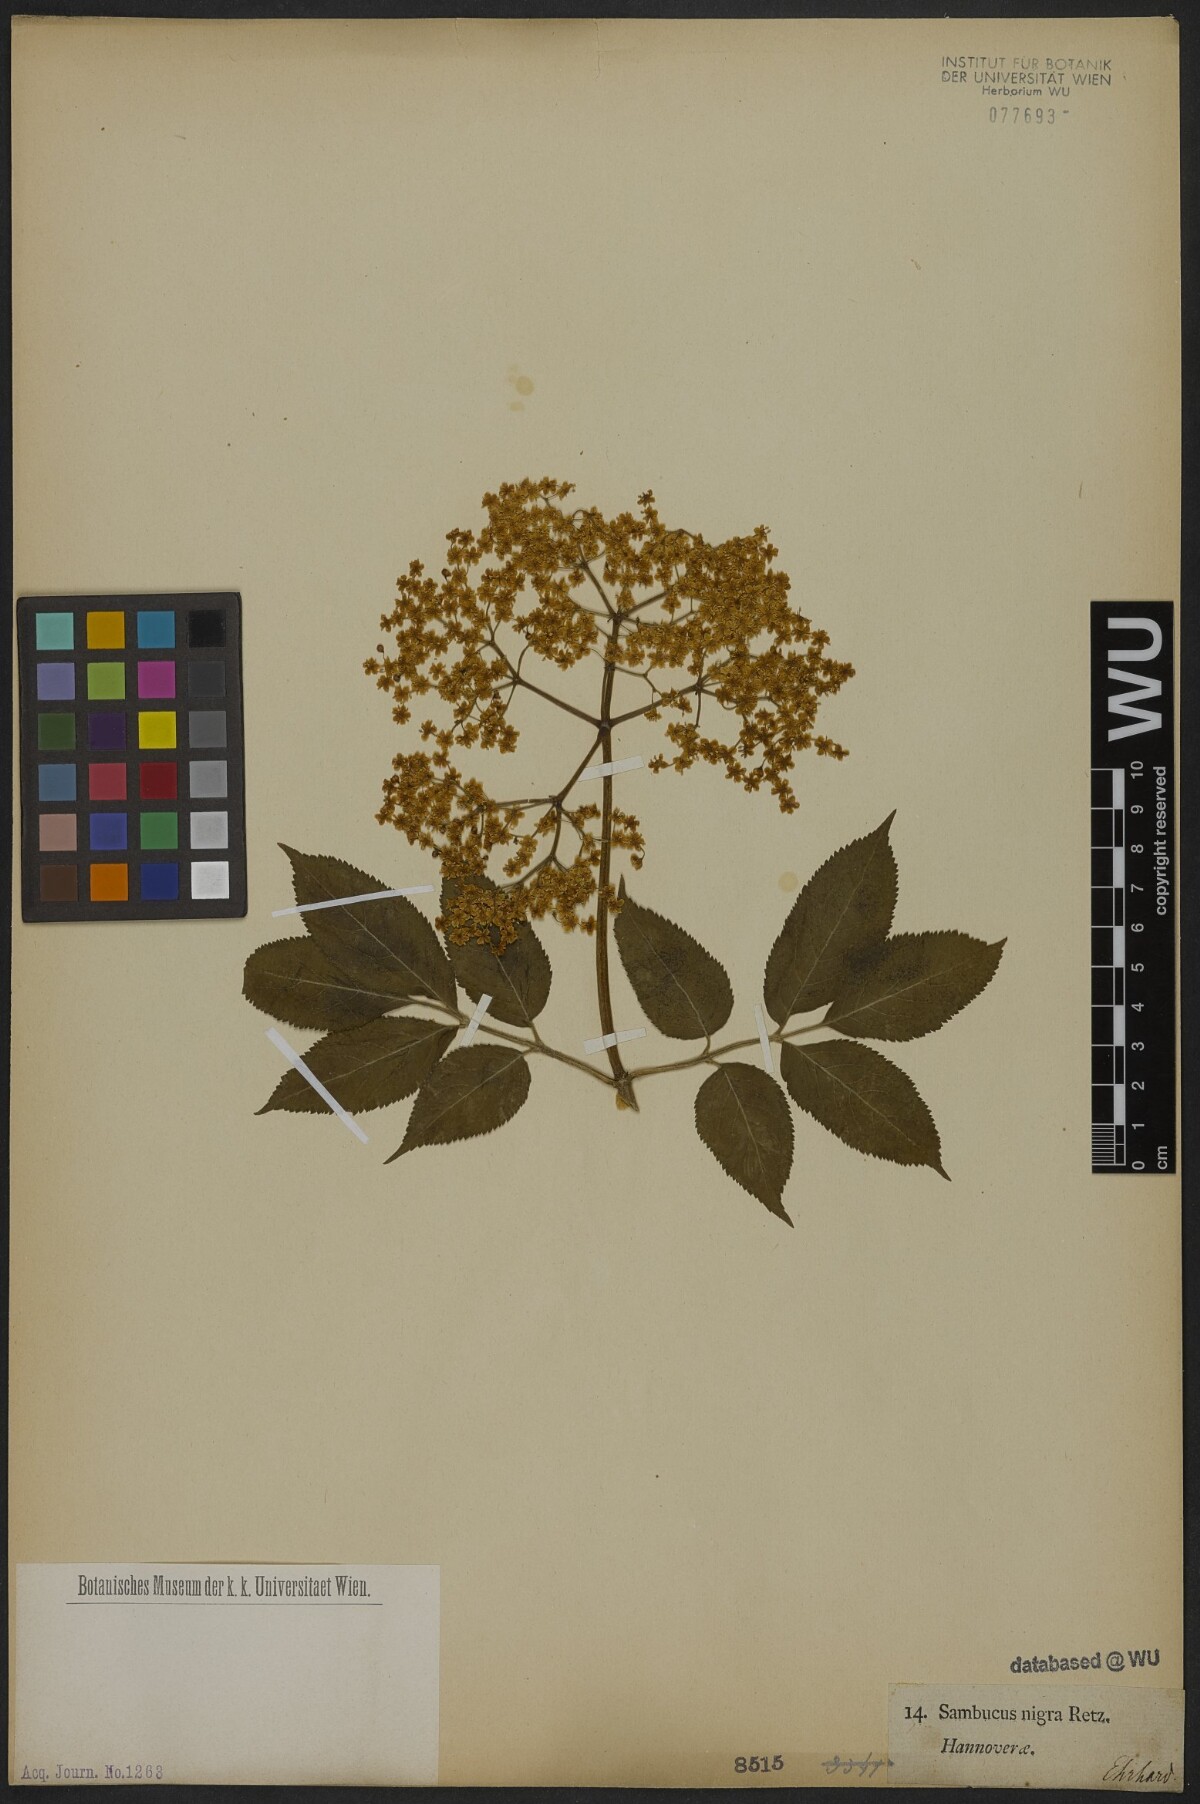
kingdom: Plantae
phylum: Tracheophyta
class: Magnoliopsida
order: Dipsacales
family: Viburnaceae
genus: Sambucus
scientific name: Sambucus nigra
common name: Elder
